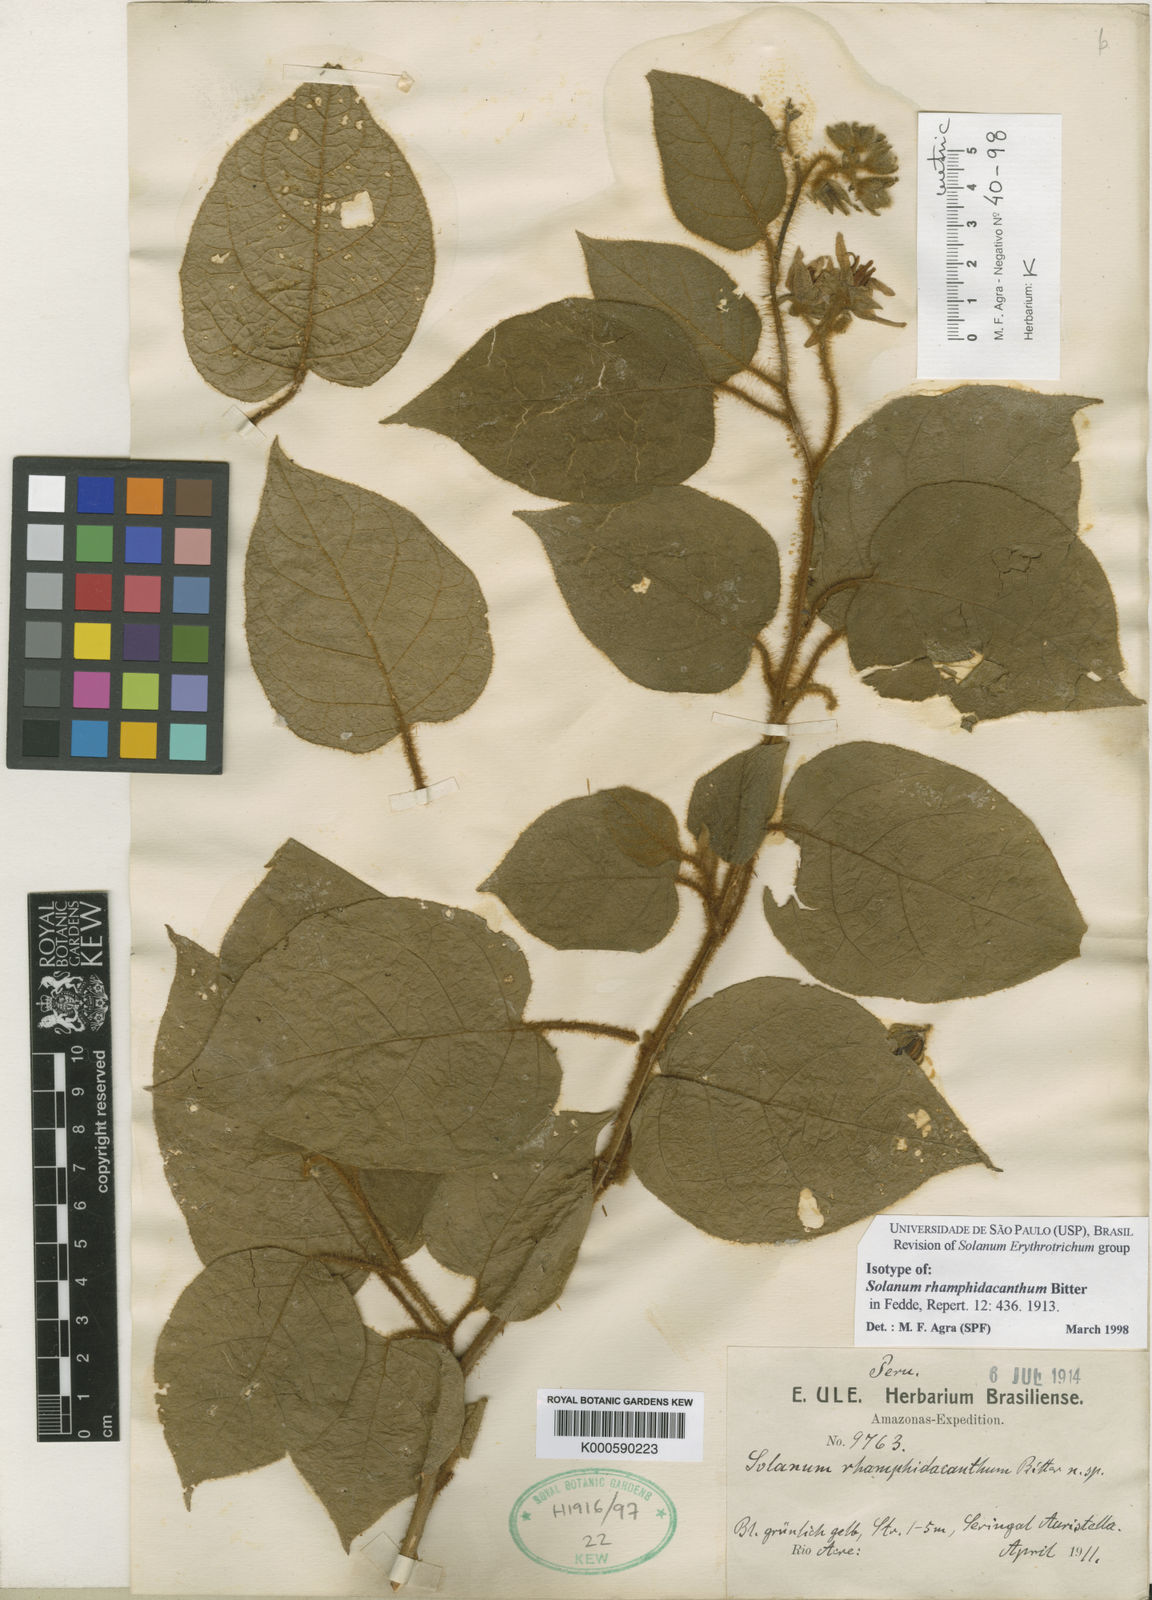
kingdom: Plantae
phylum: Tracheophyta
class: Magnoliopsida
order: Solanales
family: Solanaceae
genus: Solanum
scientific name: Solanum velutinum
